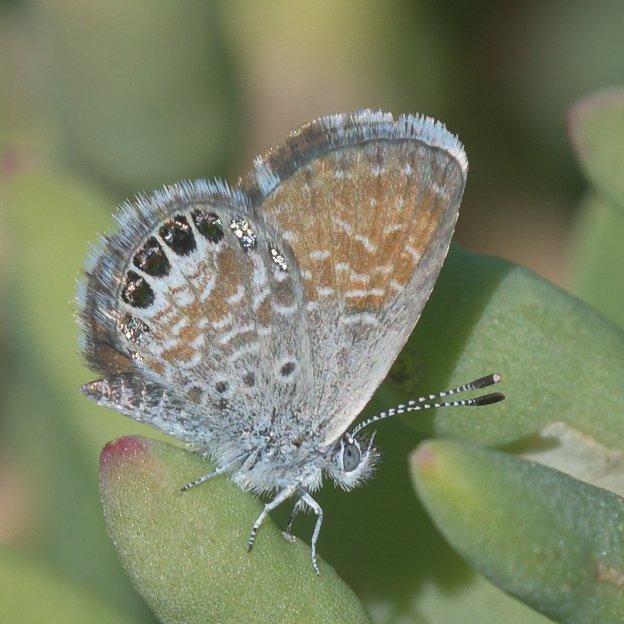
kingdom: Animalia
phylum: Arthropoda
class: Insecta
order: Lepidoptera
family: Lycaenidae
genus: Brephidium
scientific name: Brephidium exilis
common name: Western Pygmy-Blue
